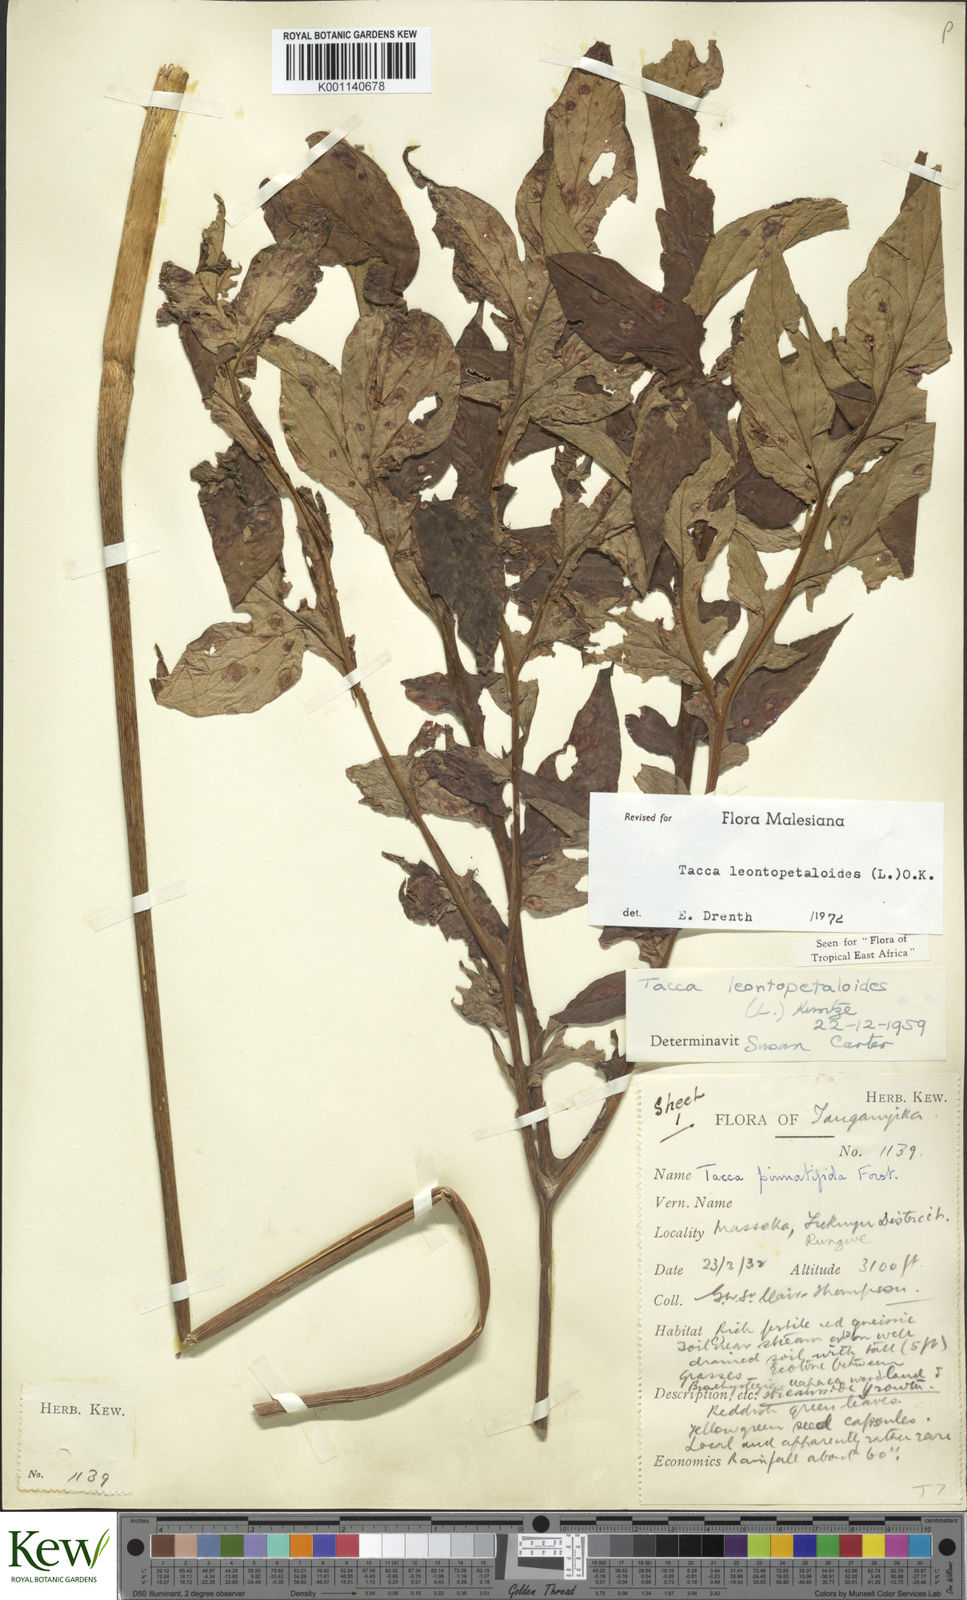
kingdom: Plantae
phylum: Tracheophyta
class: Liliopsida
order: Dioscoreales
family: Dioscoreaceae
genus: Tacca
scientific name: Tacca leontopetaloides
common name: Arrowroot
